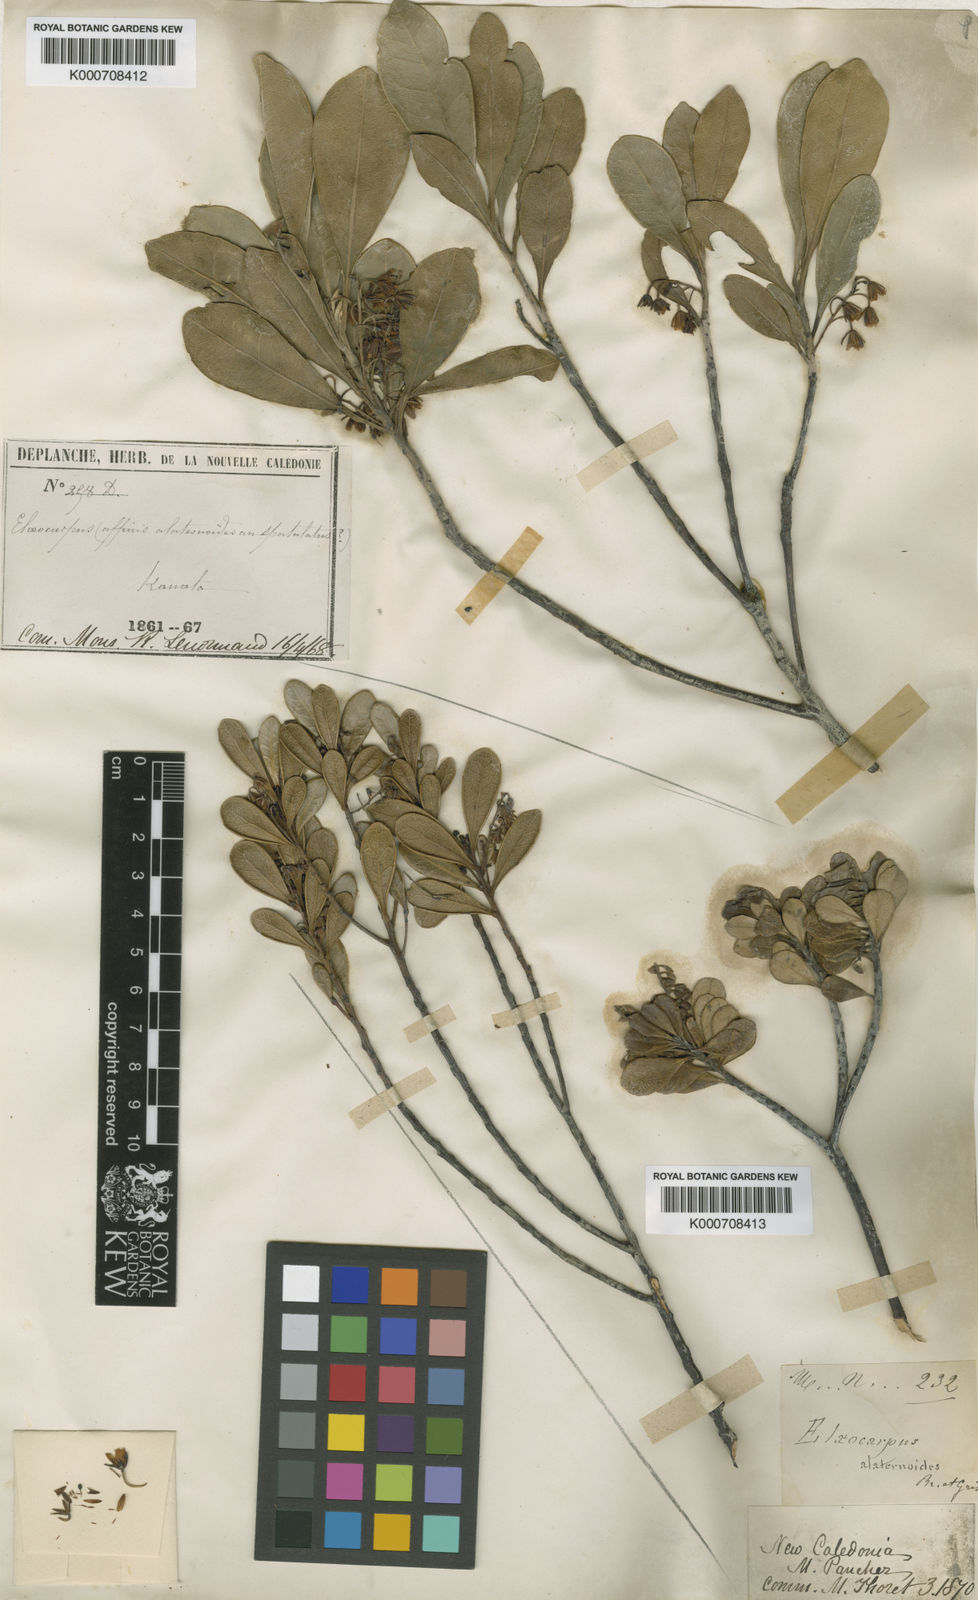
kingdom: Plantae
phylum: Tracheophyta
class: Magnoliopsida
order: Oxalidales
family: Elaeocarpaceae
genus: Elaeocarpus
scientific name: Elaeocarpus alaternoides
